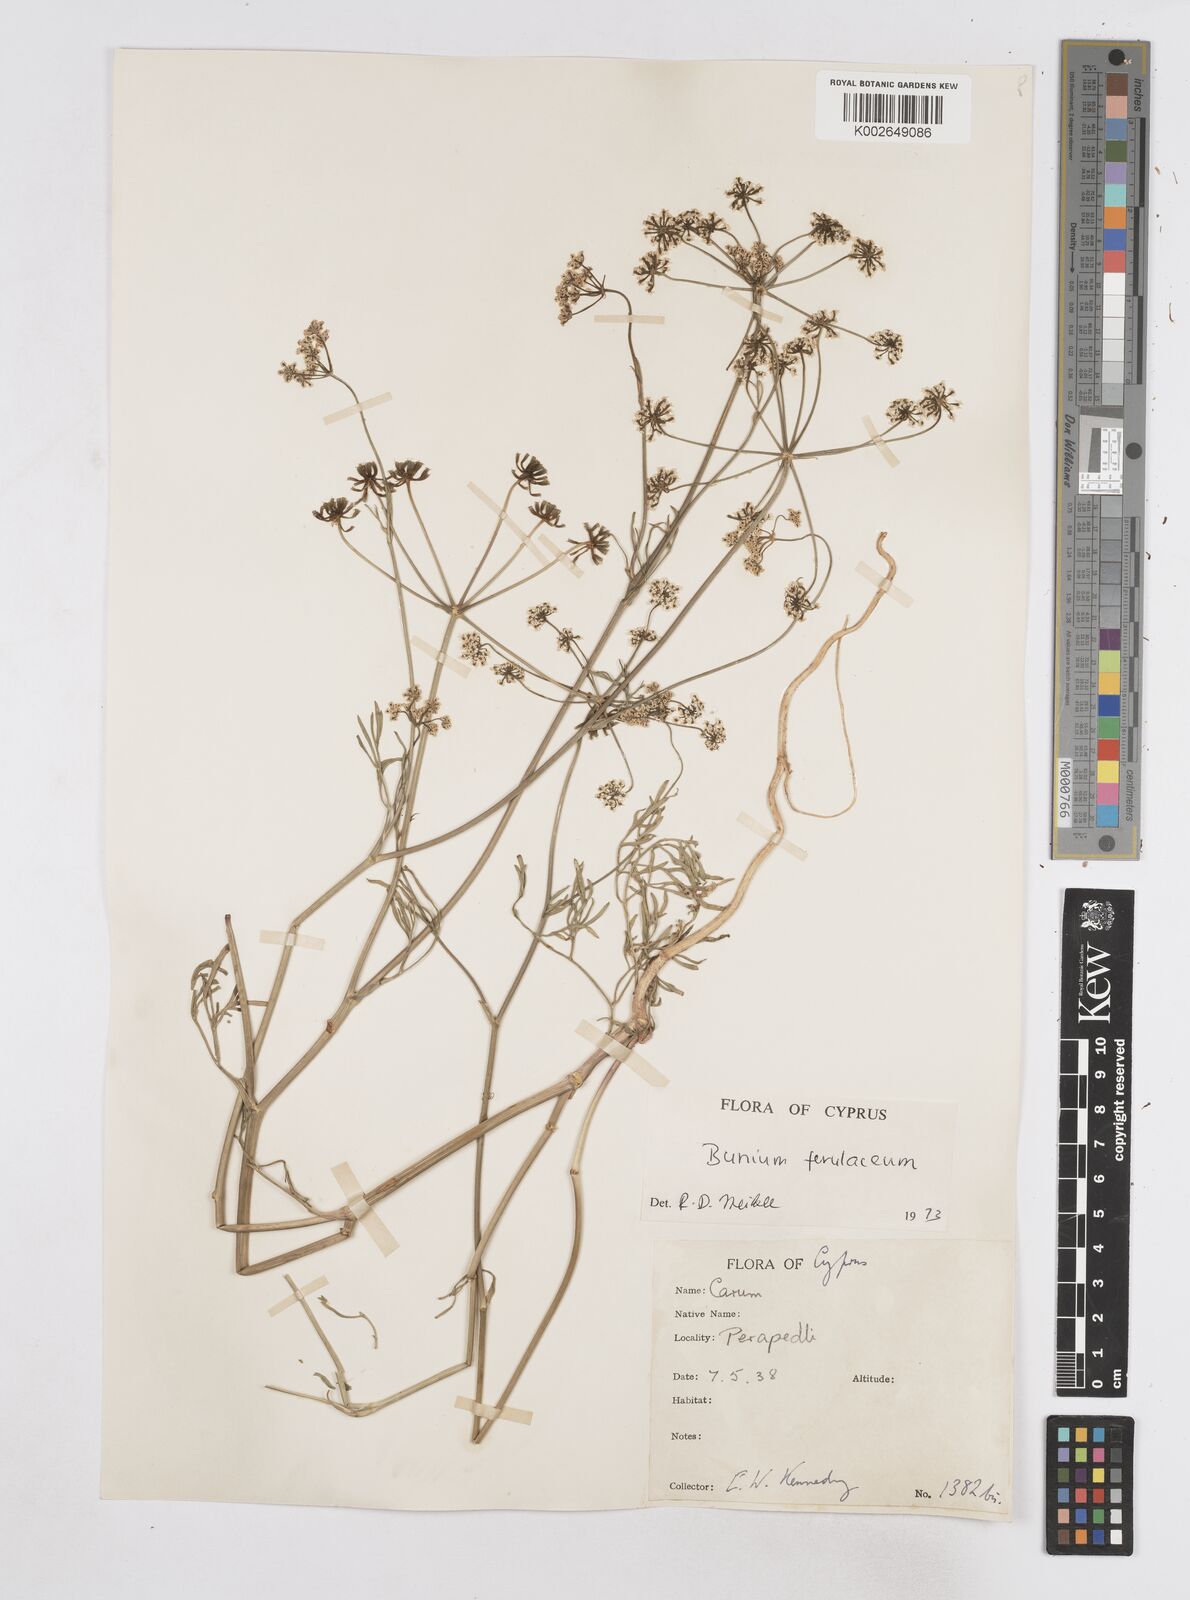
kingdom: Plantae
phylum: Tracheophyta
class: Magnoliopsida
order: Apiales
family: Apiaceae
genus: Bunium
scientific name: Bunium ferulaceum
